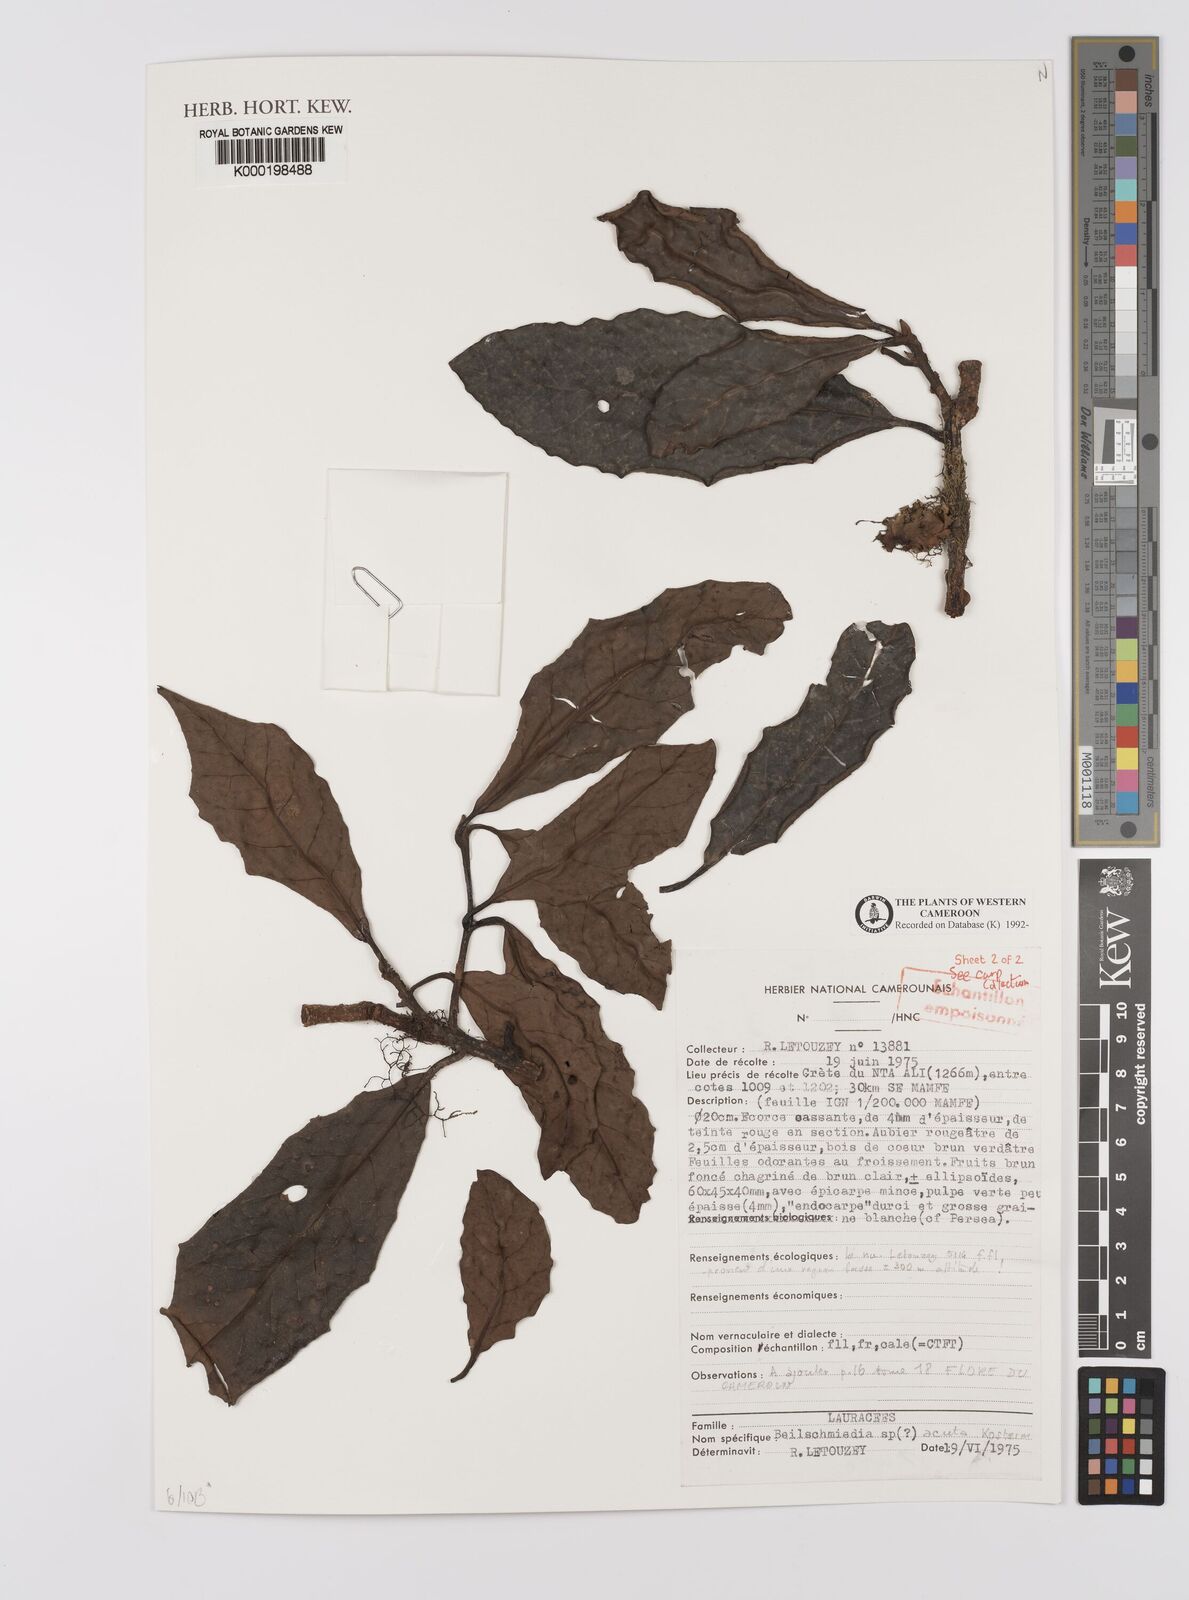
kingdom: Plantae
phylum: Tracheophyta
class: Magnoliopsida
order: Laurales
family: Lauraceae
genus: Beilschmiedia
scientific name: Beilschmiedia acuta
